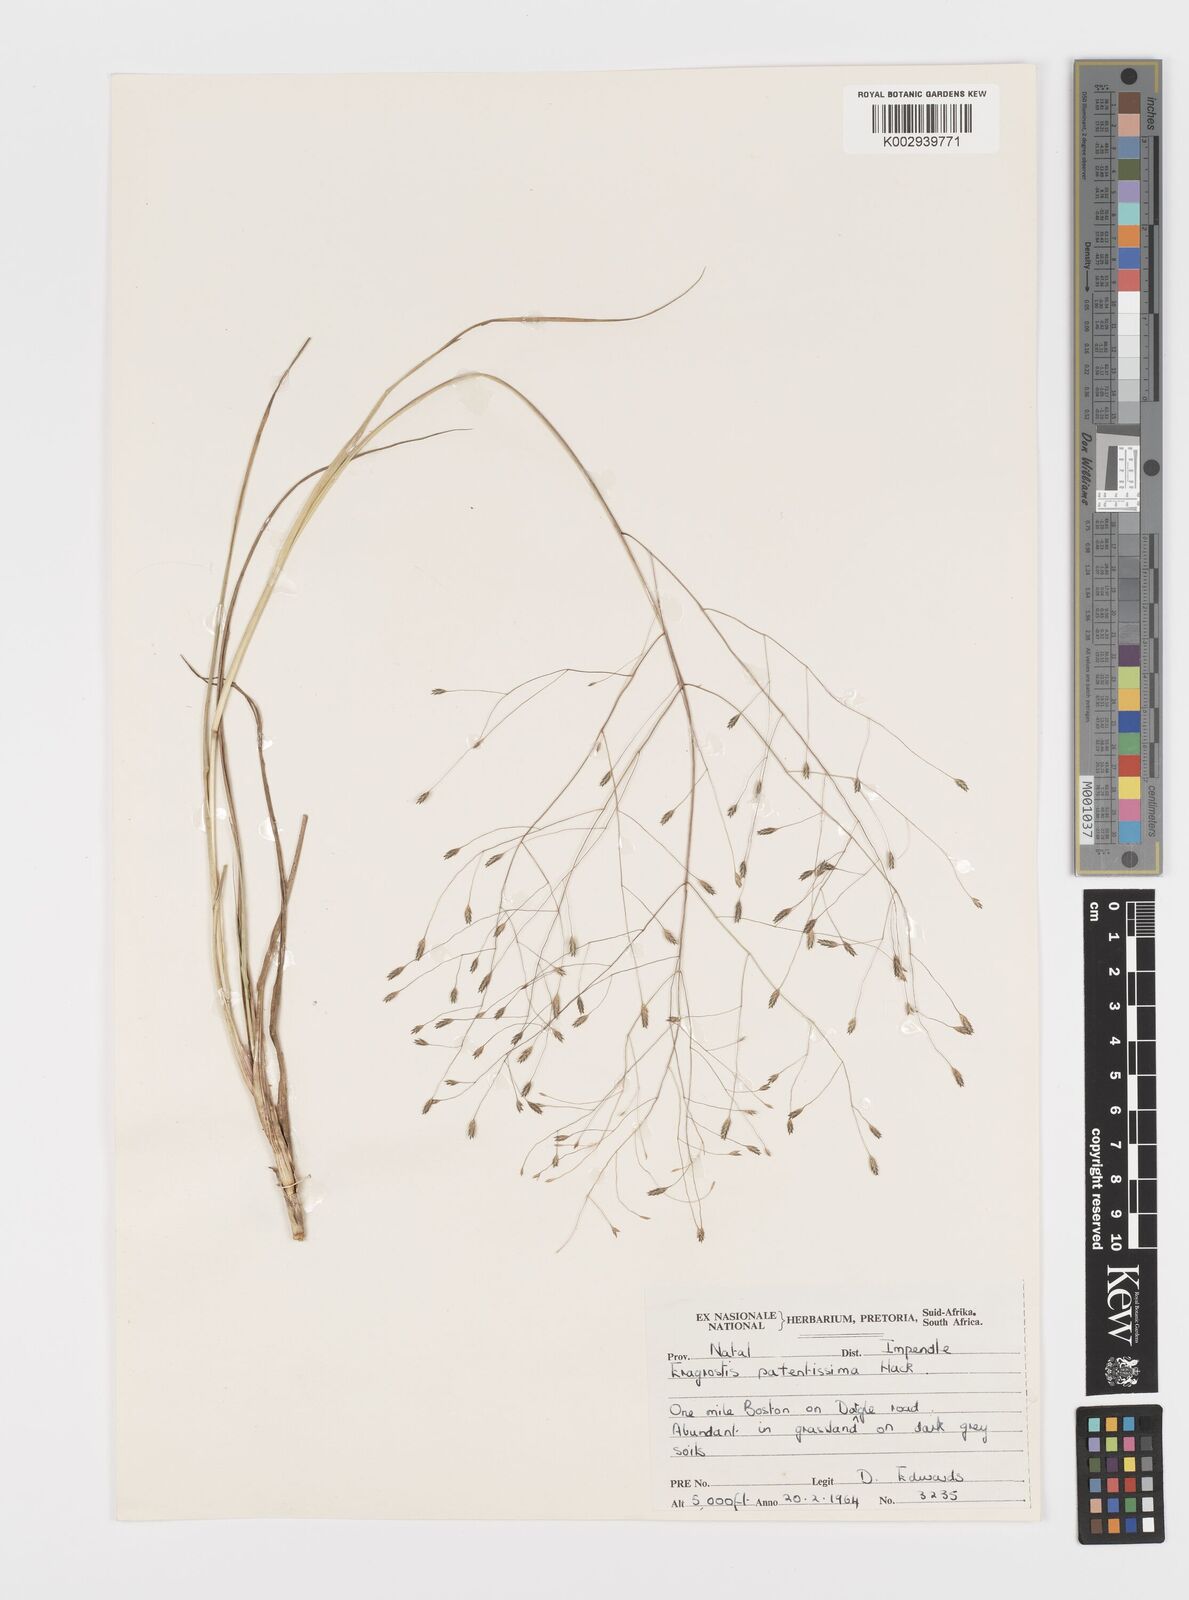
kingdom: Plantae
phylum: Tracheophyta
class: Liliopsida
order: Poales
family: Poaceae
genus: Eragrostis
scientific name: Eragrostis patentissima
